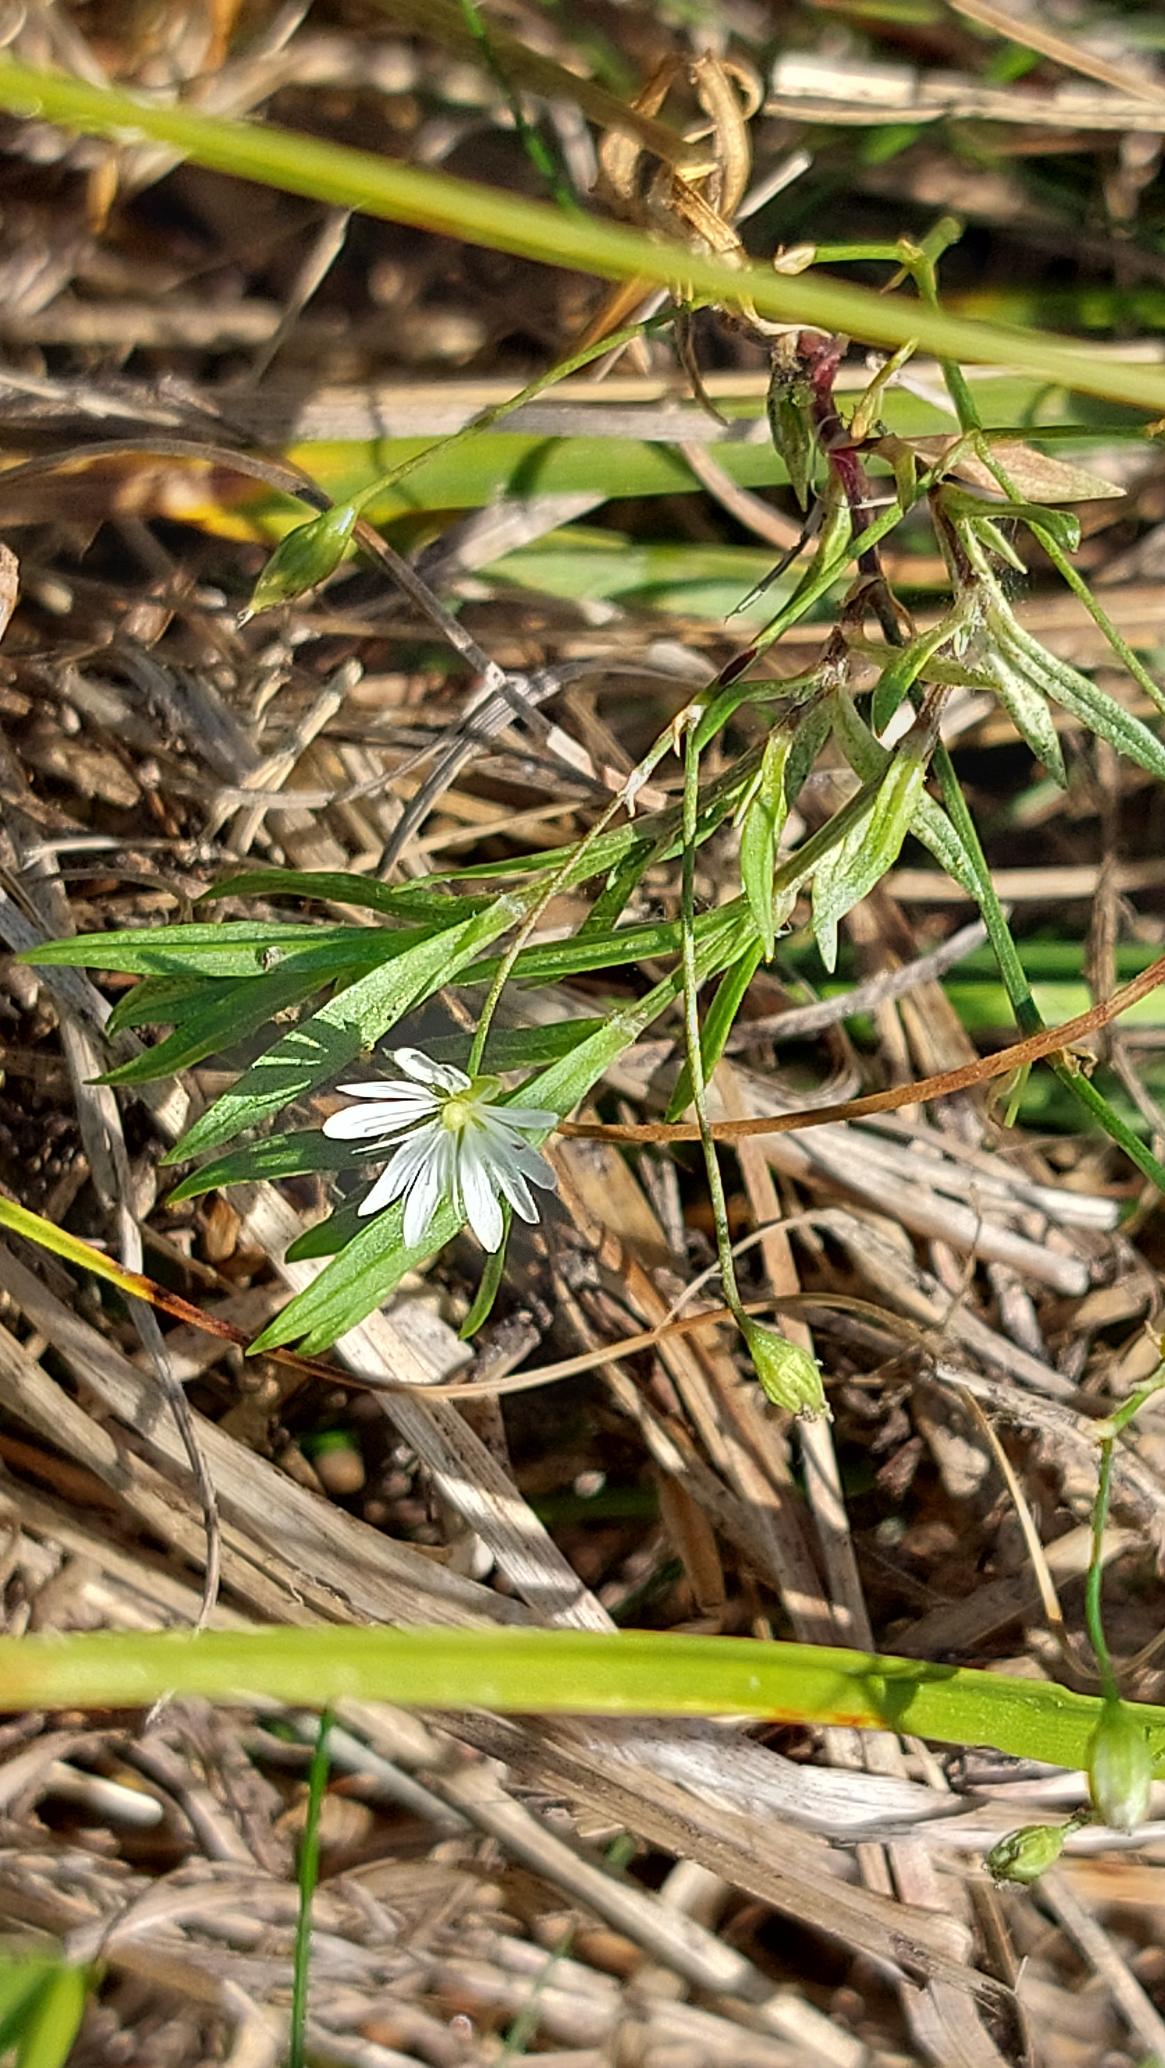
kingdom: Plantae
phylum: Tracheophyta
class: Magnoliopsida
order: Caryophyllales
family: Caryophyllaceae
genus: Stellaria
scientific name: Stellaria graminea
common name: Græsbladet fladstjerne
